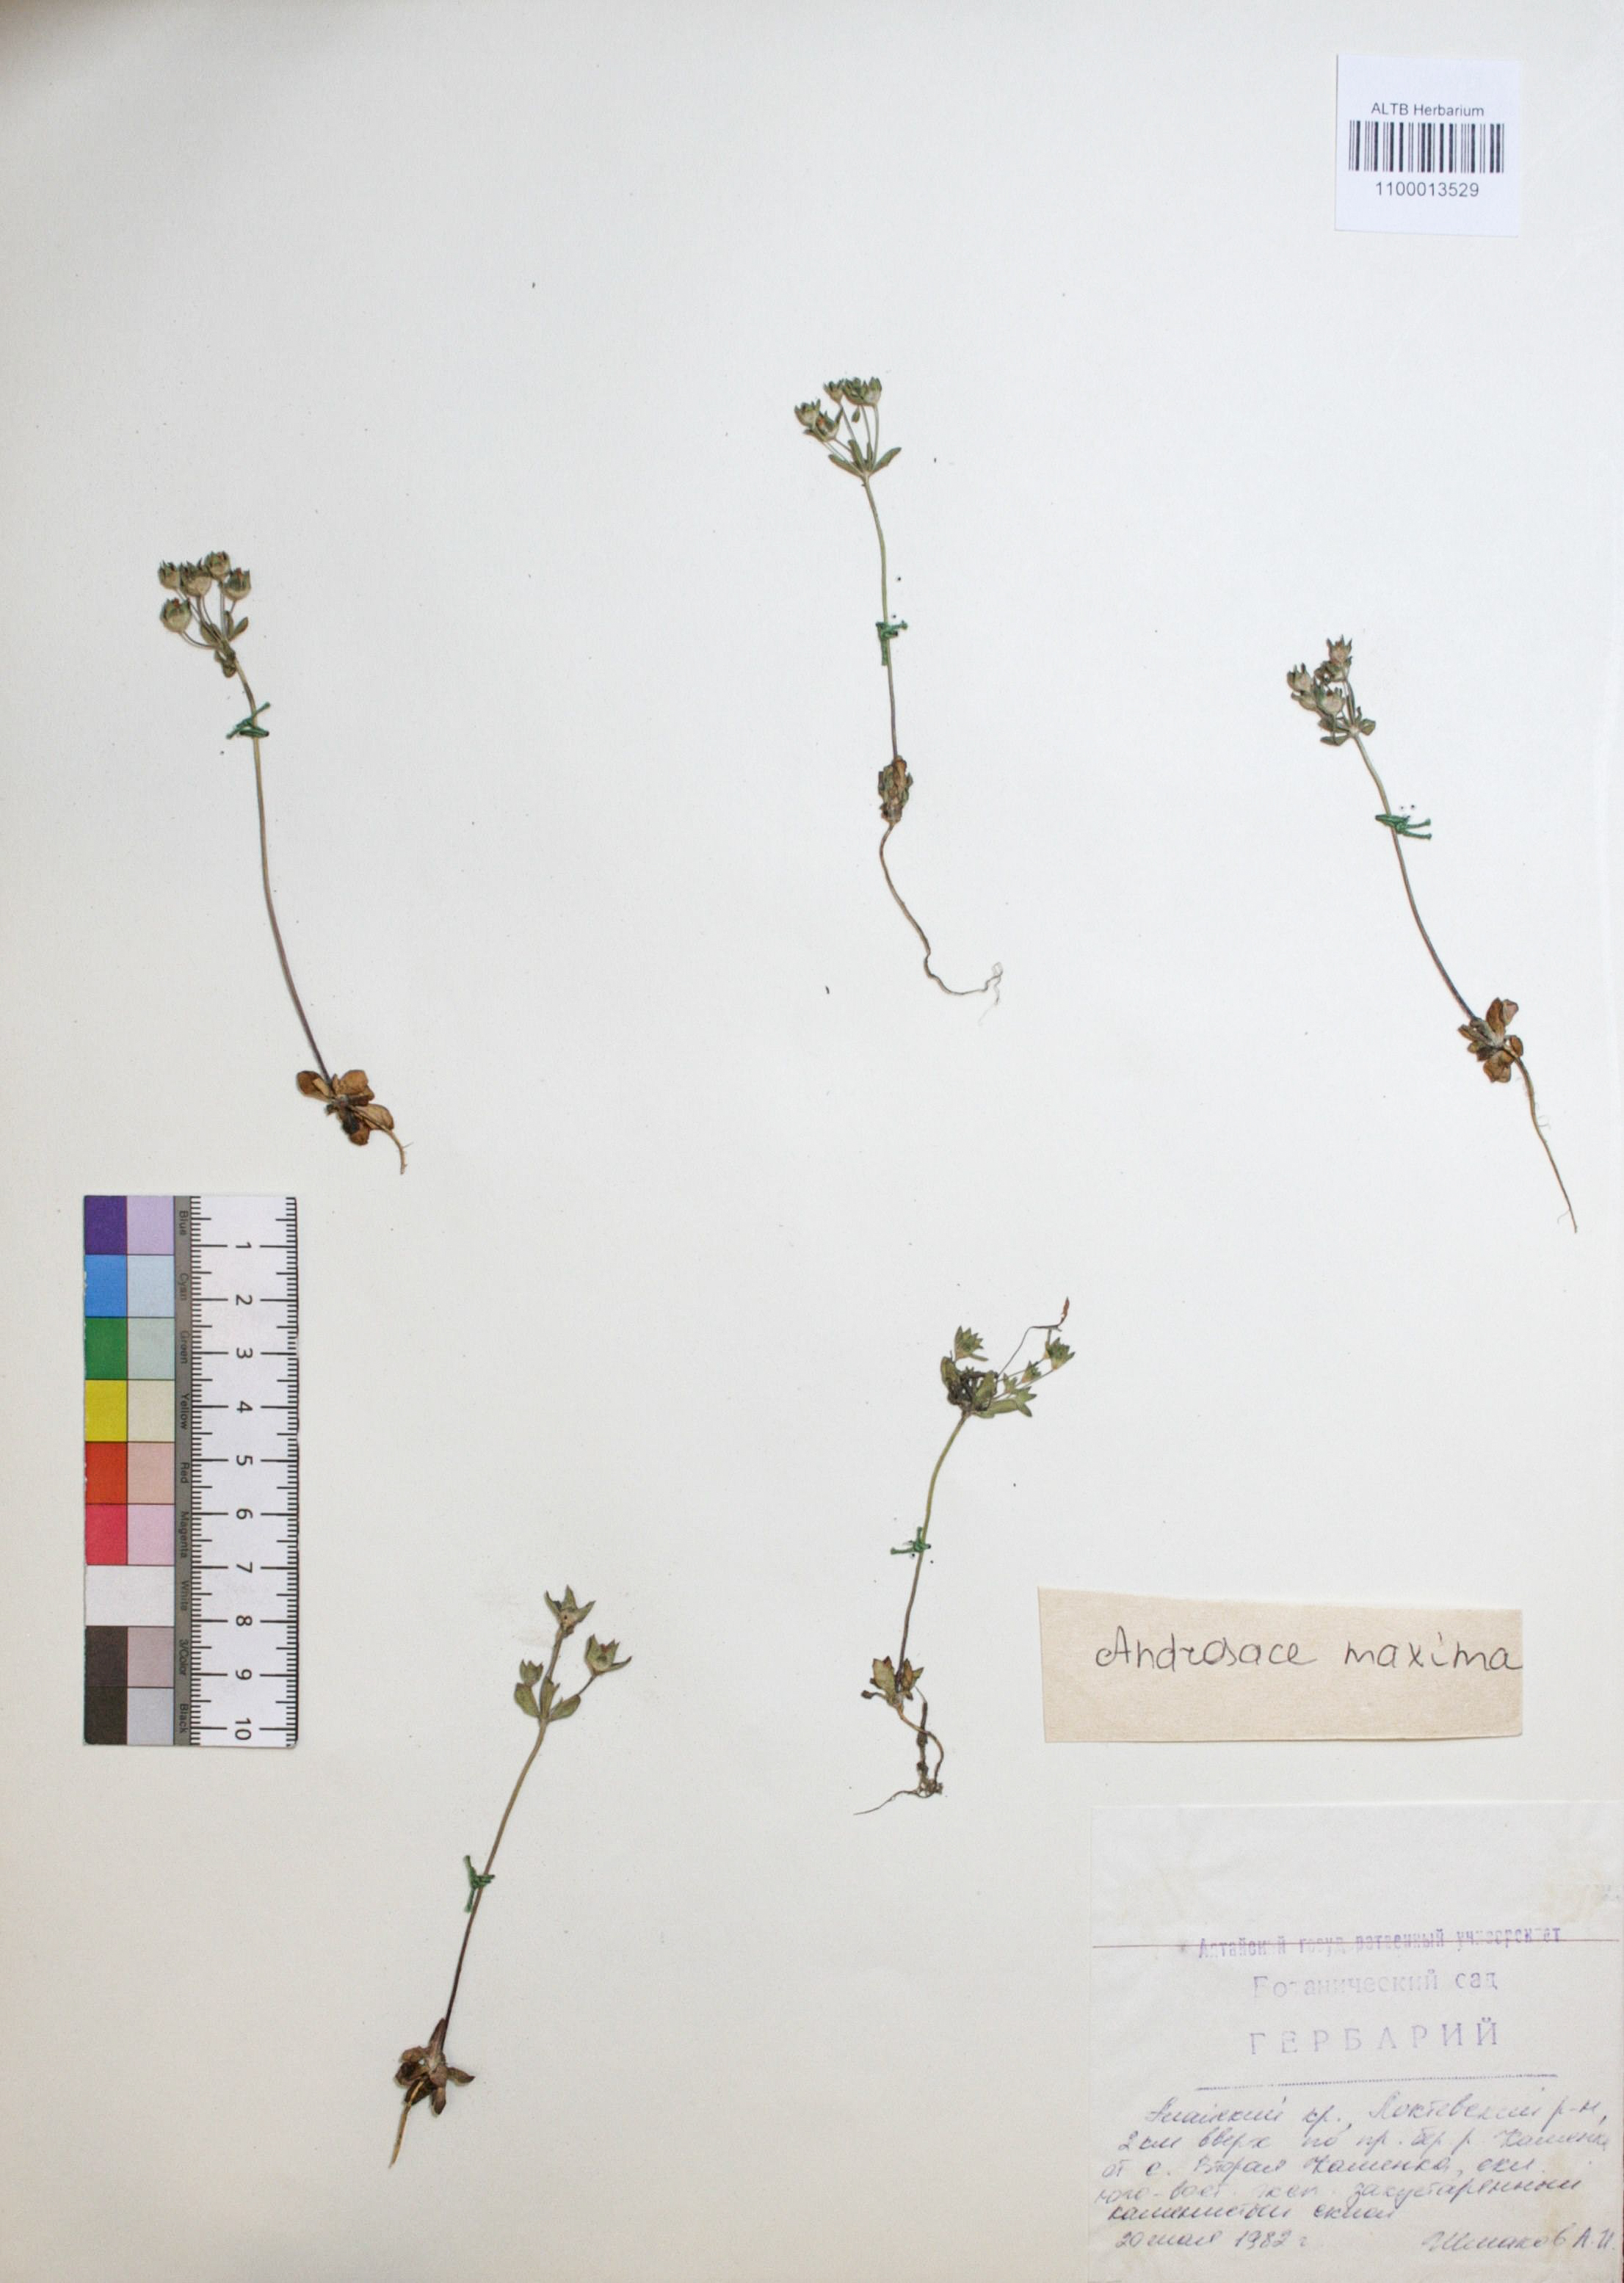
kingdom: Plantae
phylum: Tracheophyta
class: Magnoliopsida
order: Ericales
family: Primulaceae
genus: Androsace
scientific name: Androsace maxima
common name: Annual androsace
